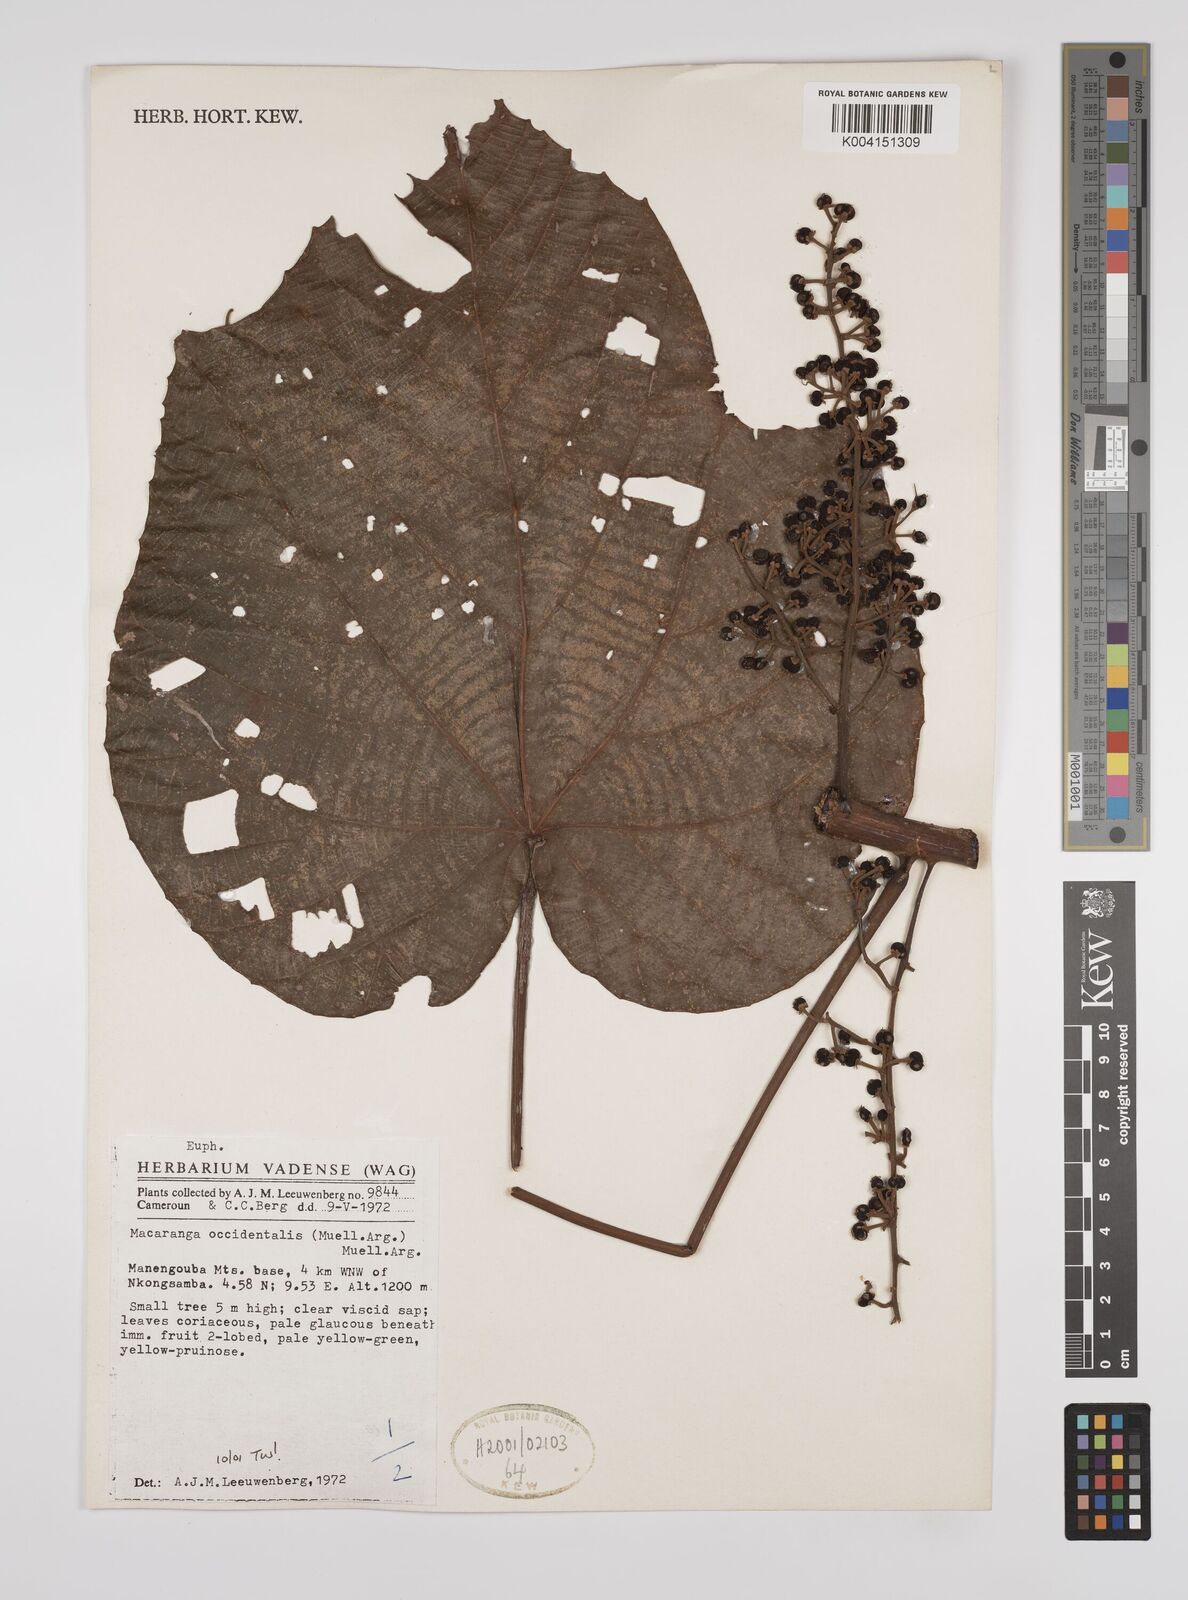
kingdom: Plantae
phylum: Tracheophyta
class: Magnoliopsida
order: Malpighiales
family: Euphorbiaceae
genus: Macaranga
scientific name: Macaranga occidentalis
